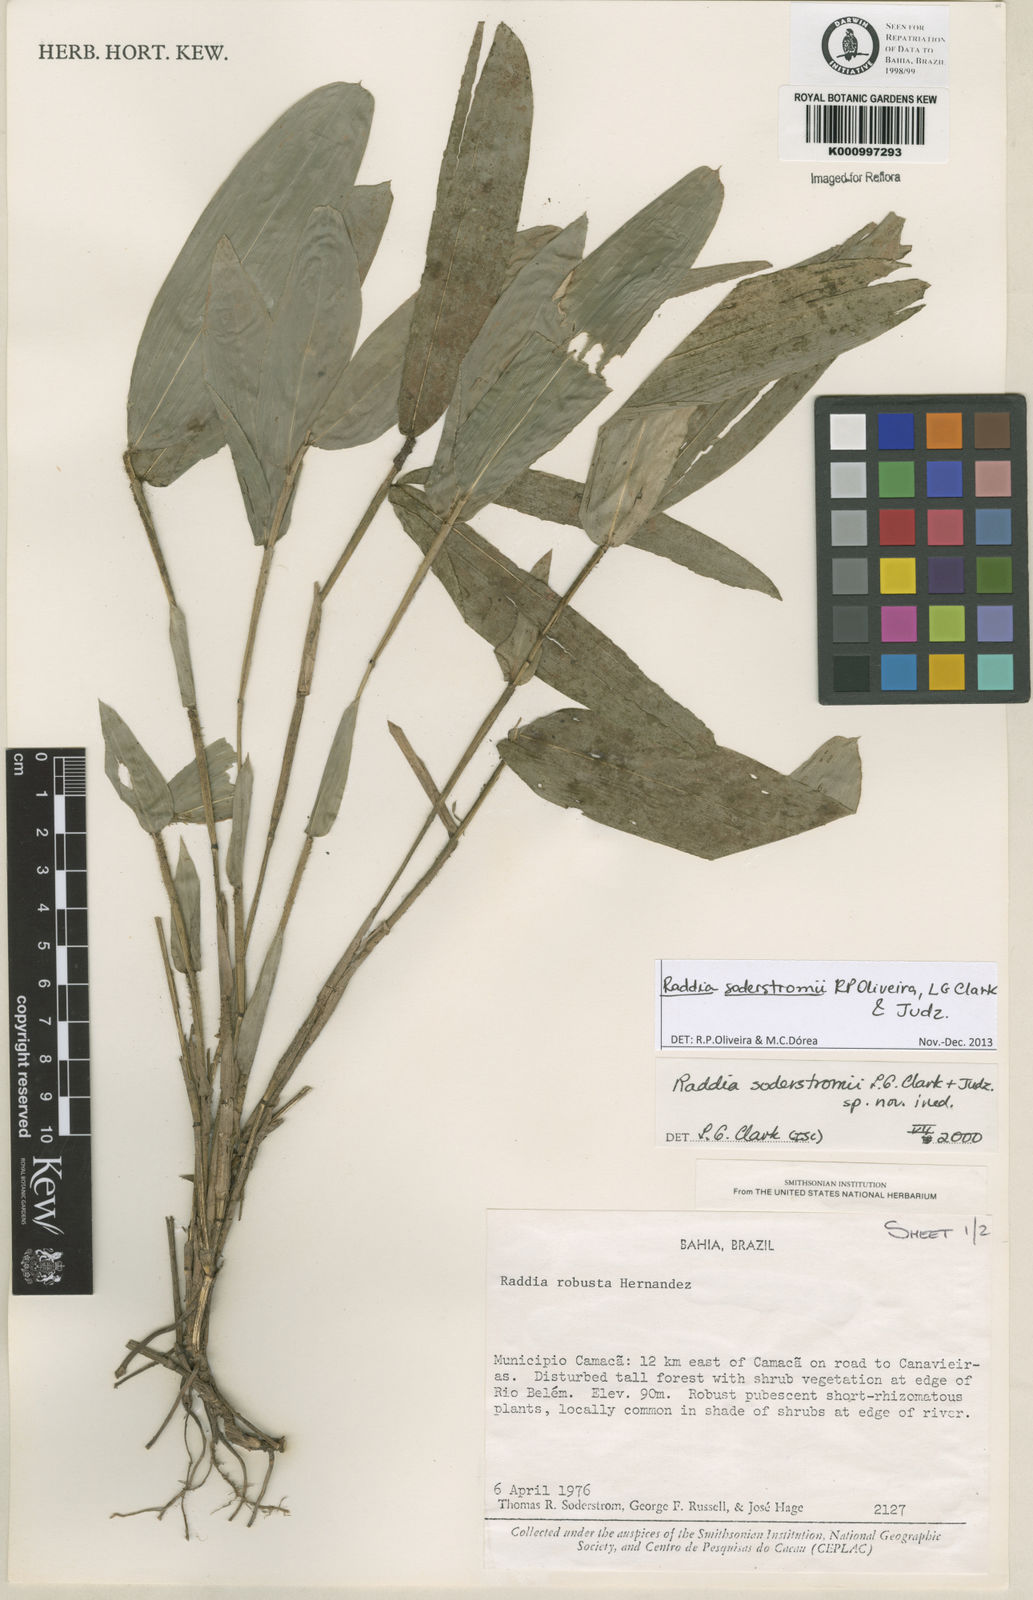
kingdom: Plantae
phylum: Tracheophyta
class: Liliopsida
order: Poales
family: Poaceae
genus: Raddia
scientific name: Raddia soderstromii
